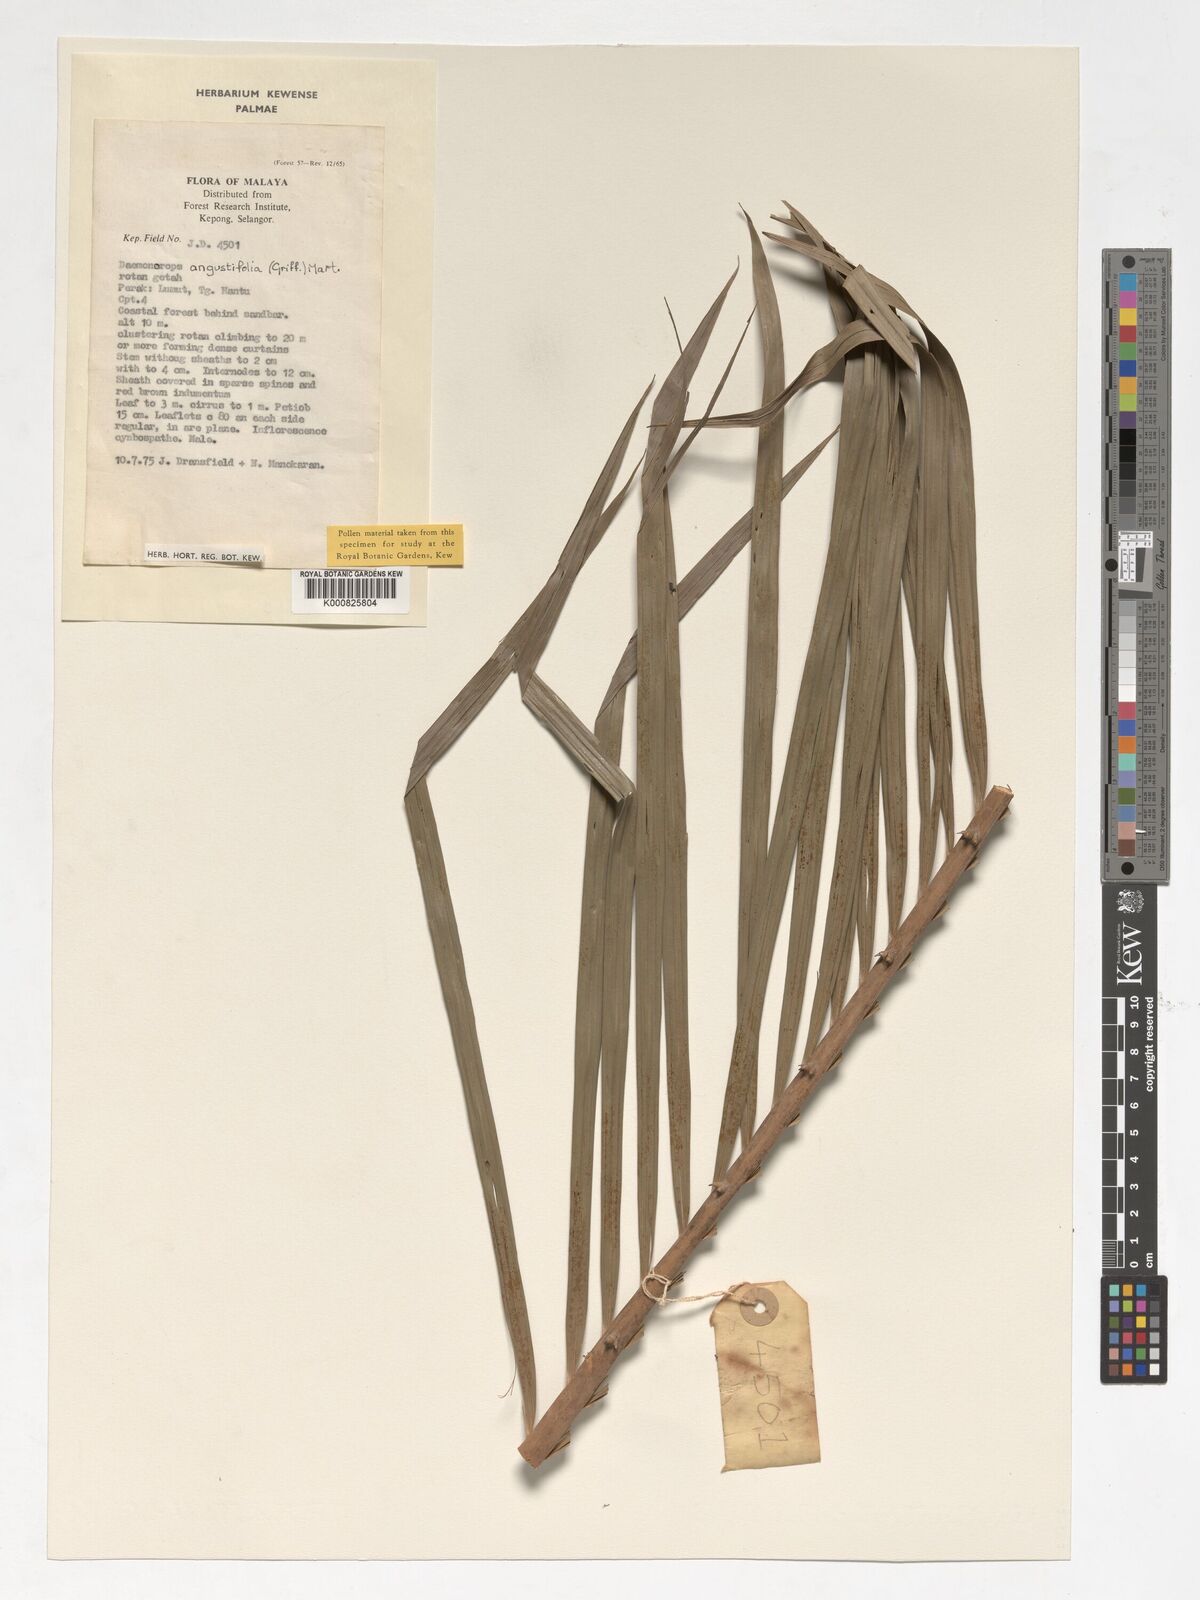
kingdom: Plantae
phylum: Tracheophyta
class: Liliopsida
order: Arecales
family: Arecaceae
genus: Calamus
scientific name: Calamus melanochaetes
